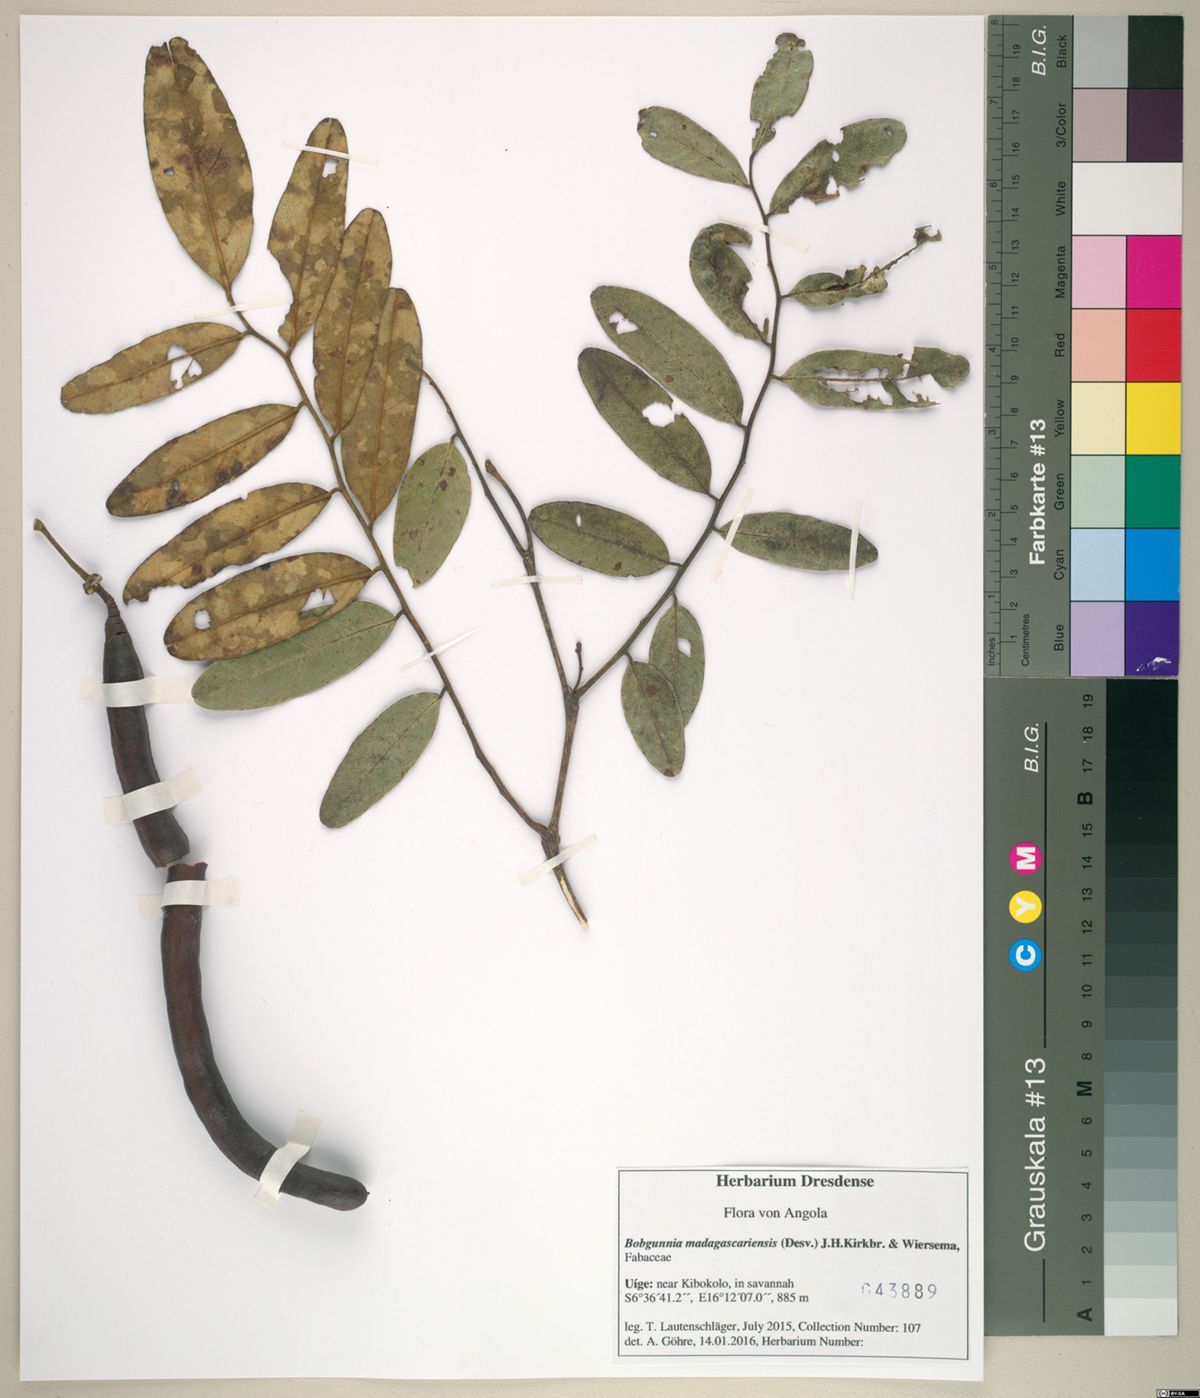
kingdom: Plantae
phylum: Tracheophyta
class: Magnoliopsida
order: Fabales
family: Fabaceae
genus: Bobgunnia
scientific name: Bobgunnia madagascariensis
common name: Snake bean plant
